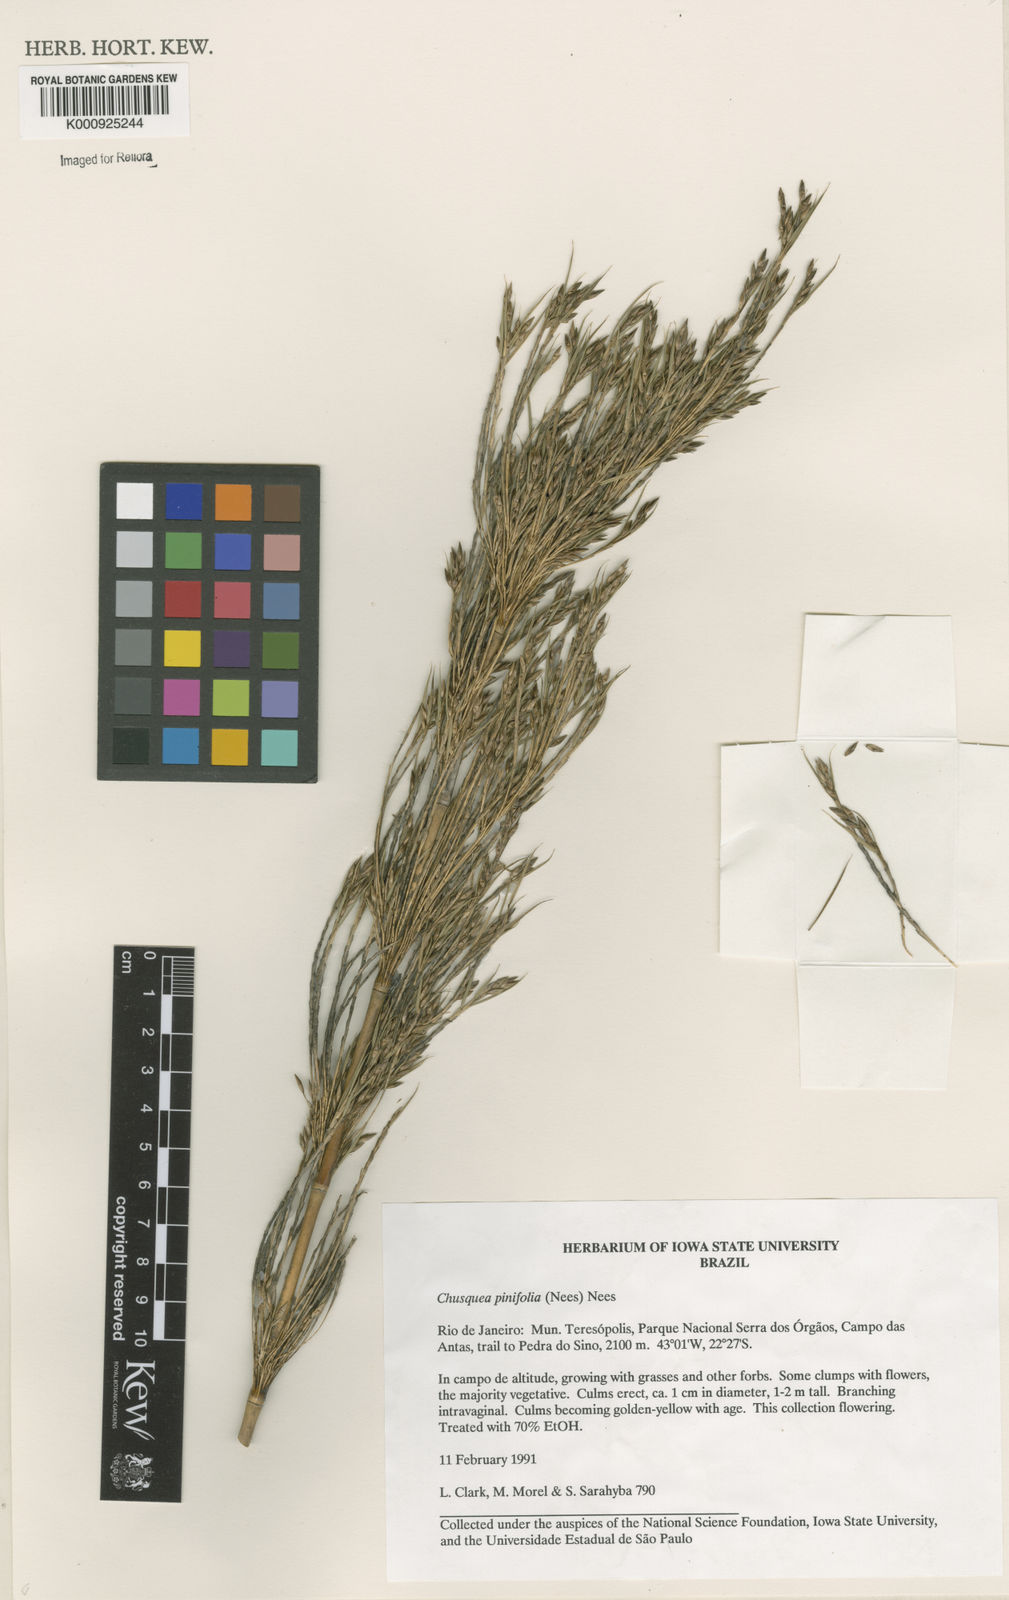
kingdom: Plantae
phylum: Tracheophyta
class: Liliopsida
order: Poales
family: Poaceae
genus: Chusquea
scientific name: Chusquea pinifolia
